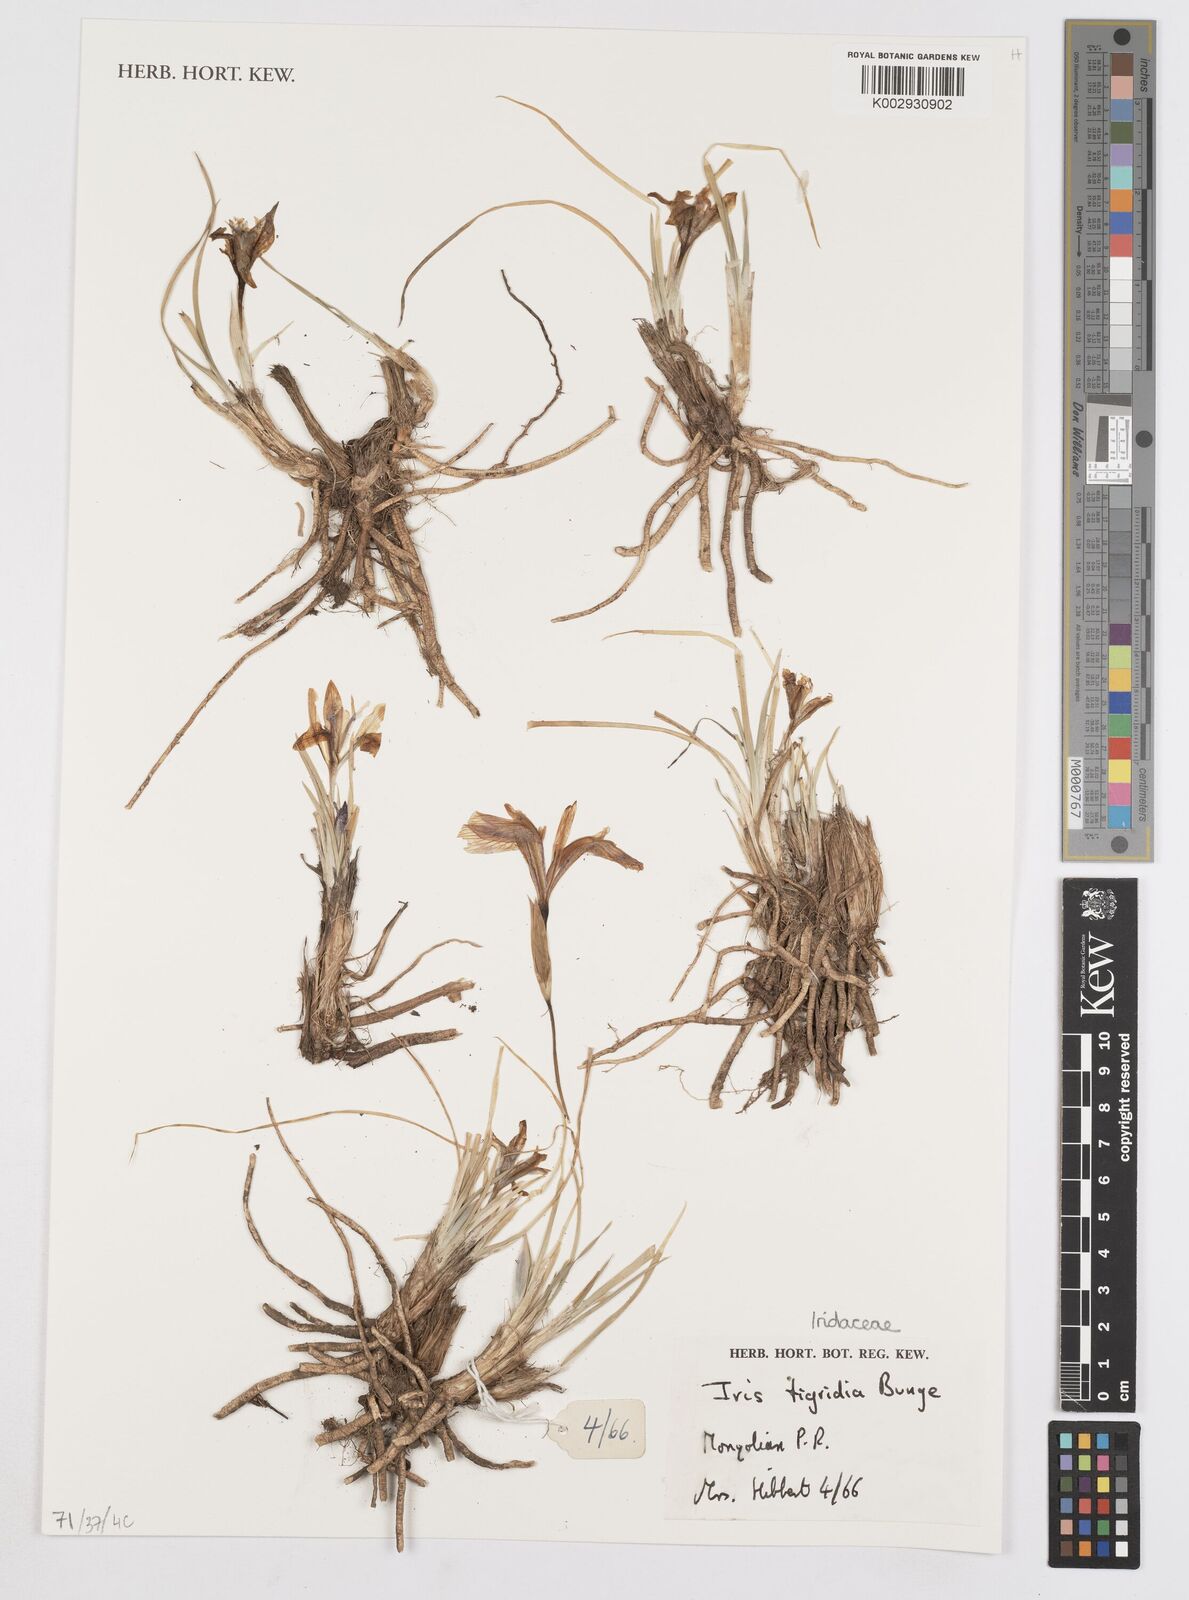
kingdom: Plantae
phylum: Tracheophyta
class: Liliopsida
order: Asparagales
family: Iridaceae
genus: Iris
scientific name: Iris tigridia
